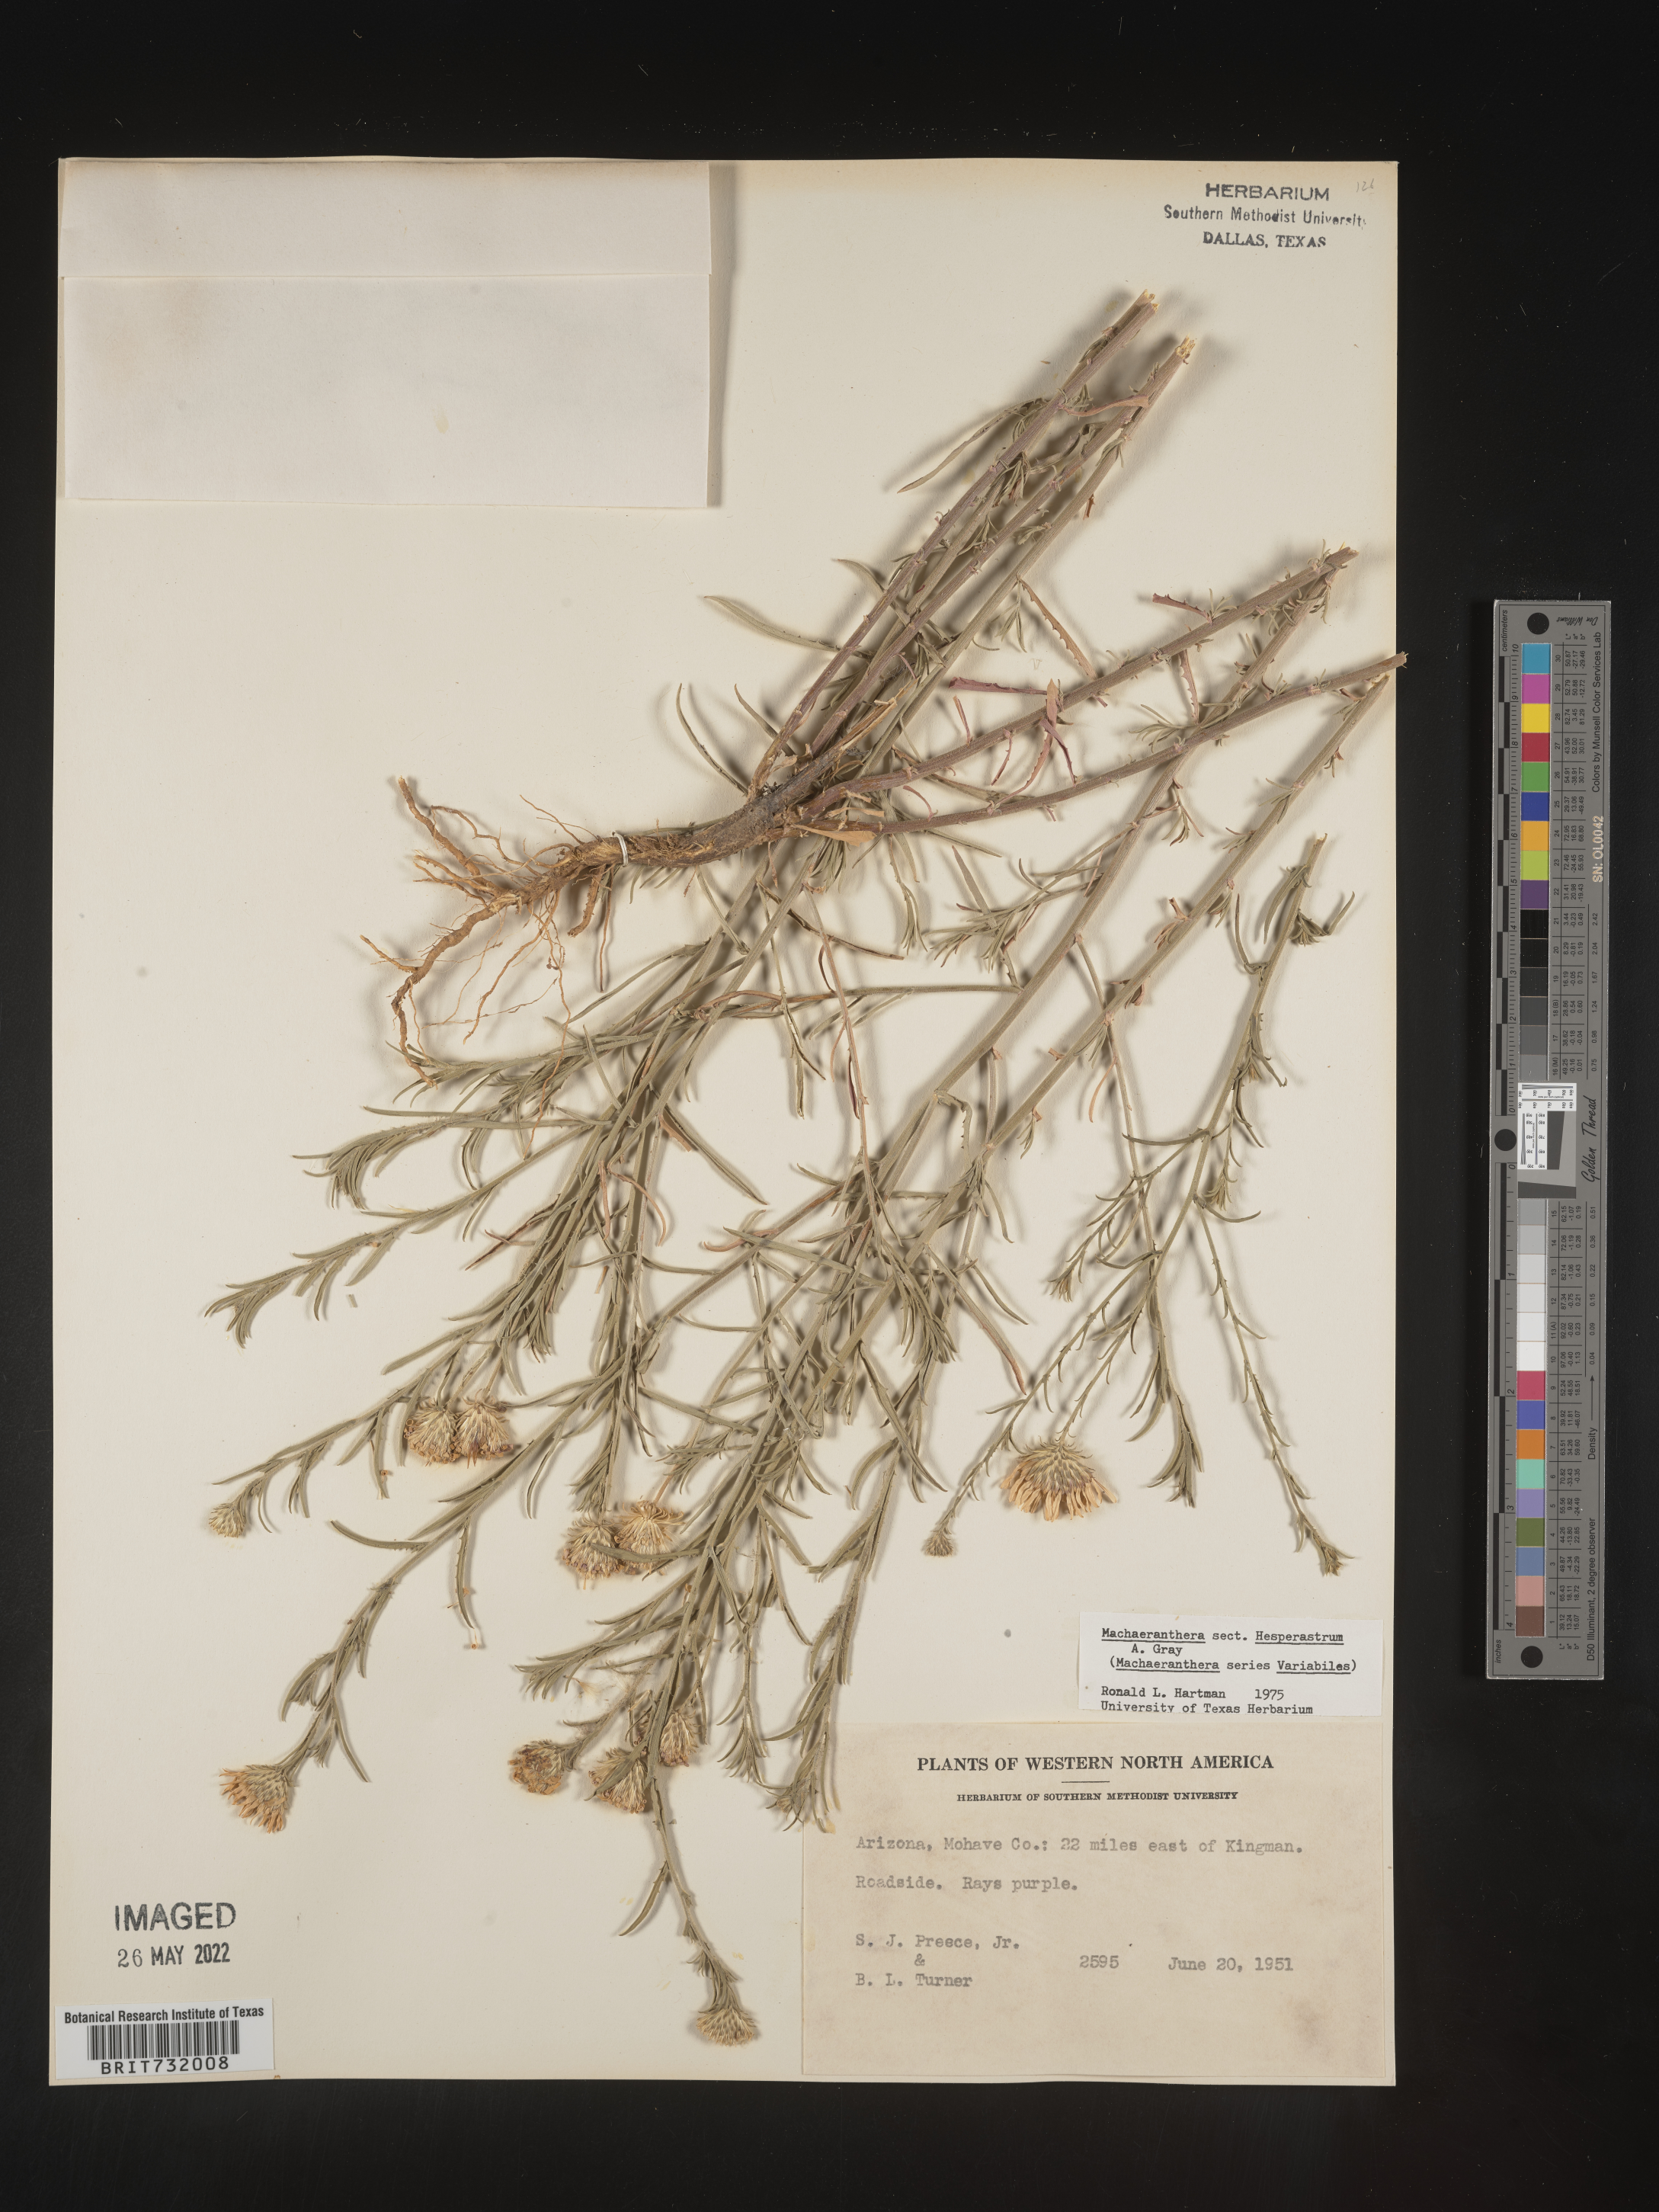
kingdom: Plantae
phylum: Tracheophyta
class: Magnoliopsida
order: Asterales
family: Asteraceae
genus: Machaeranthera
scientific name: Machaeranthera
